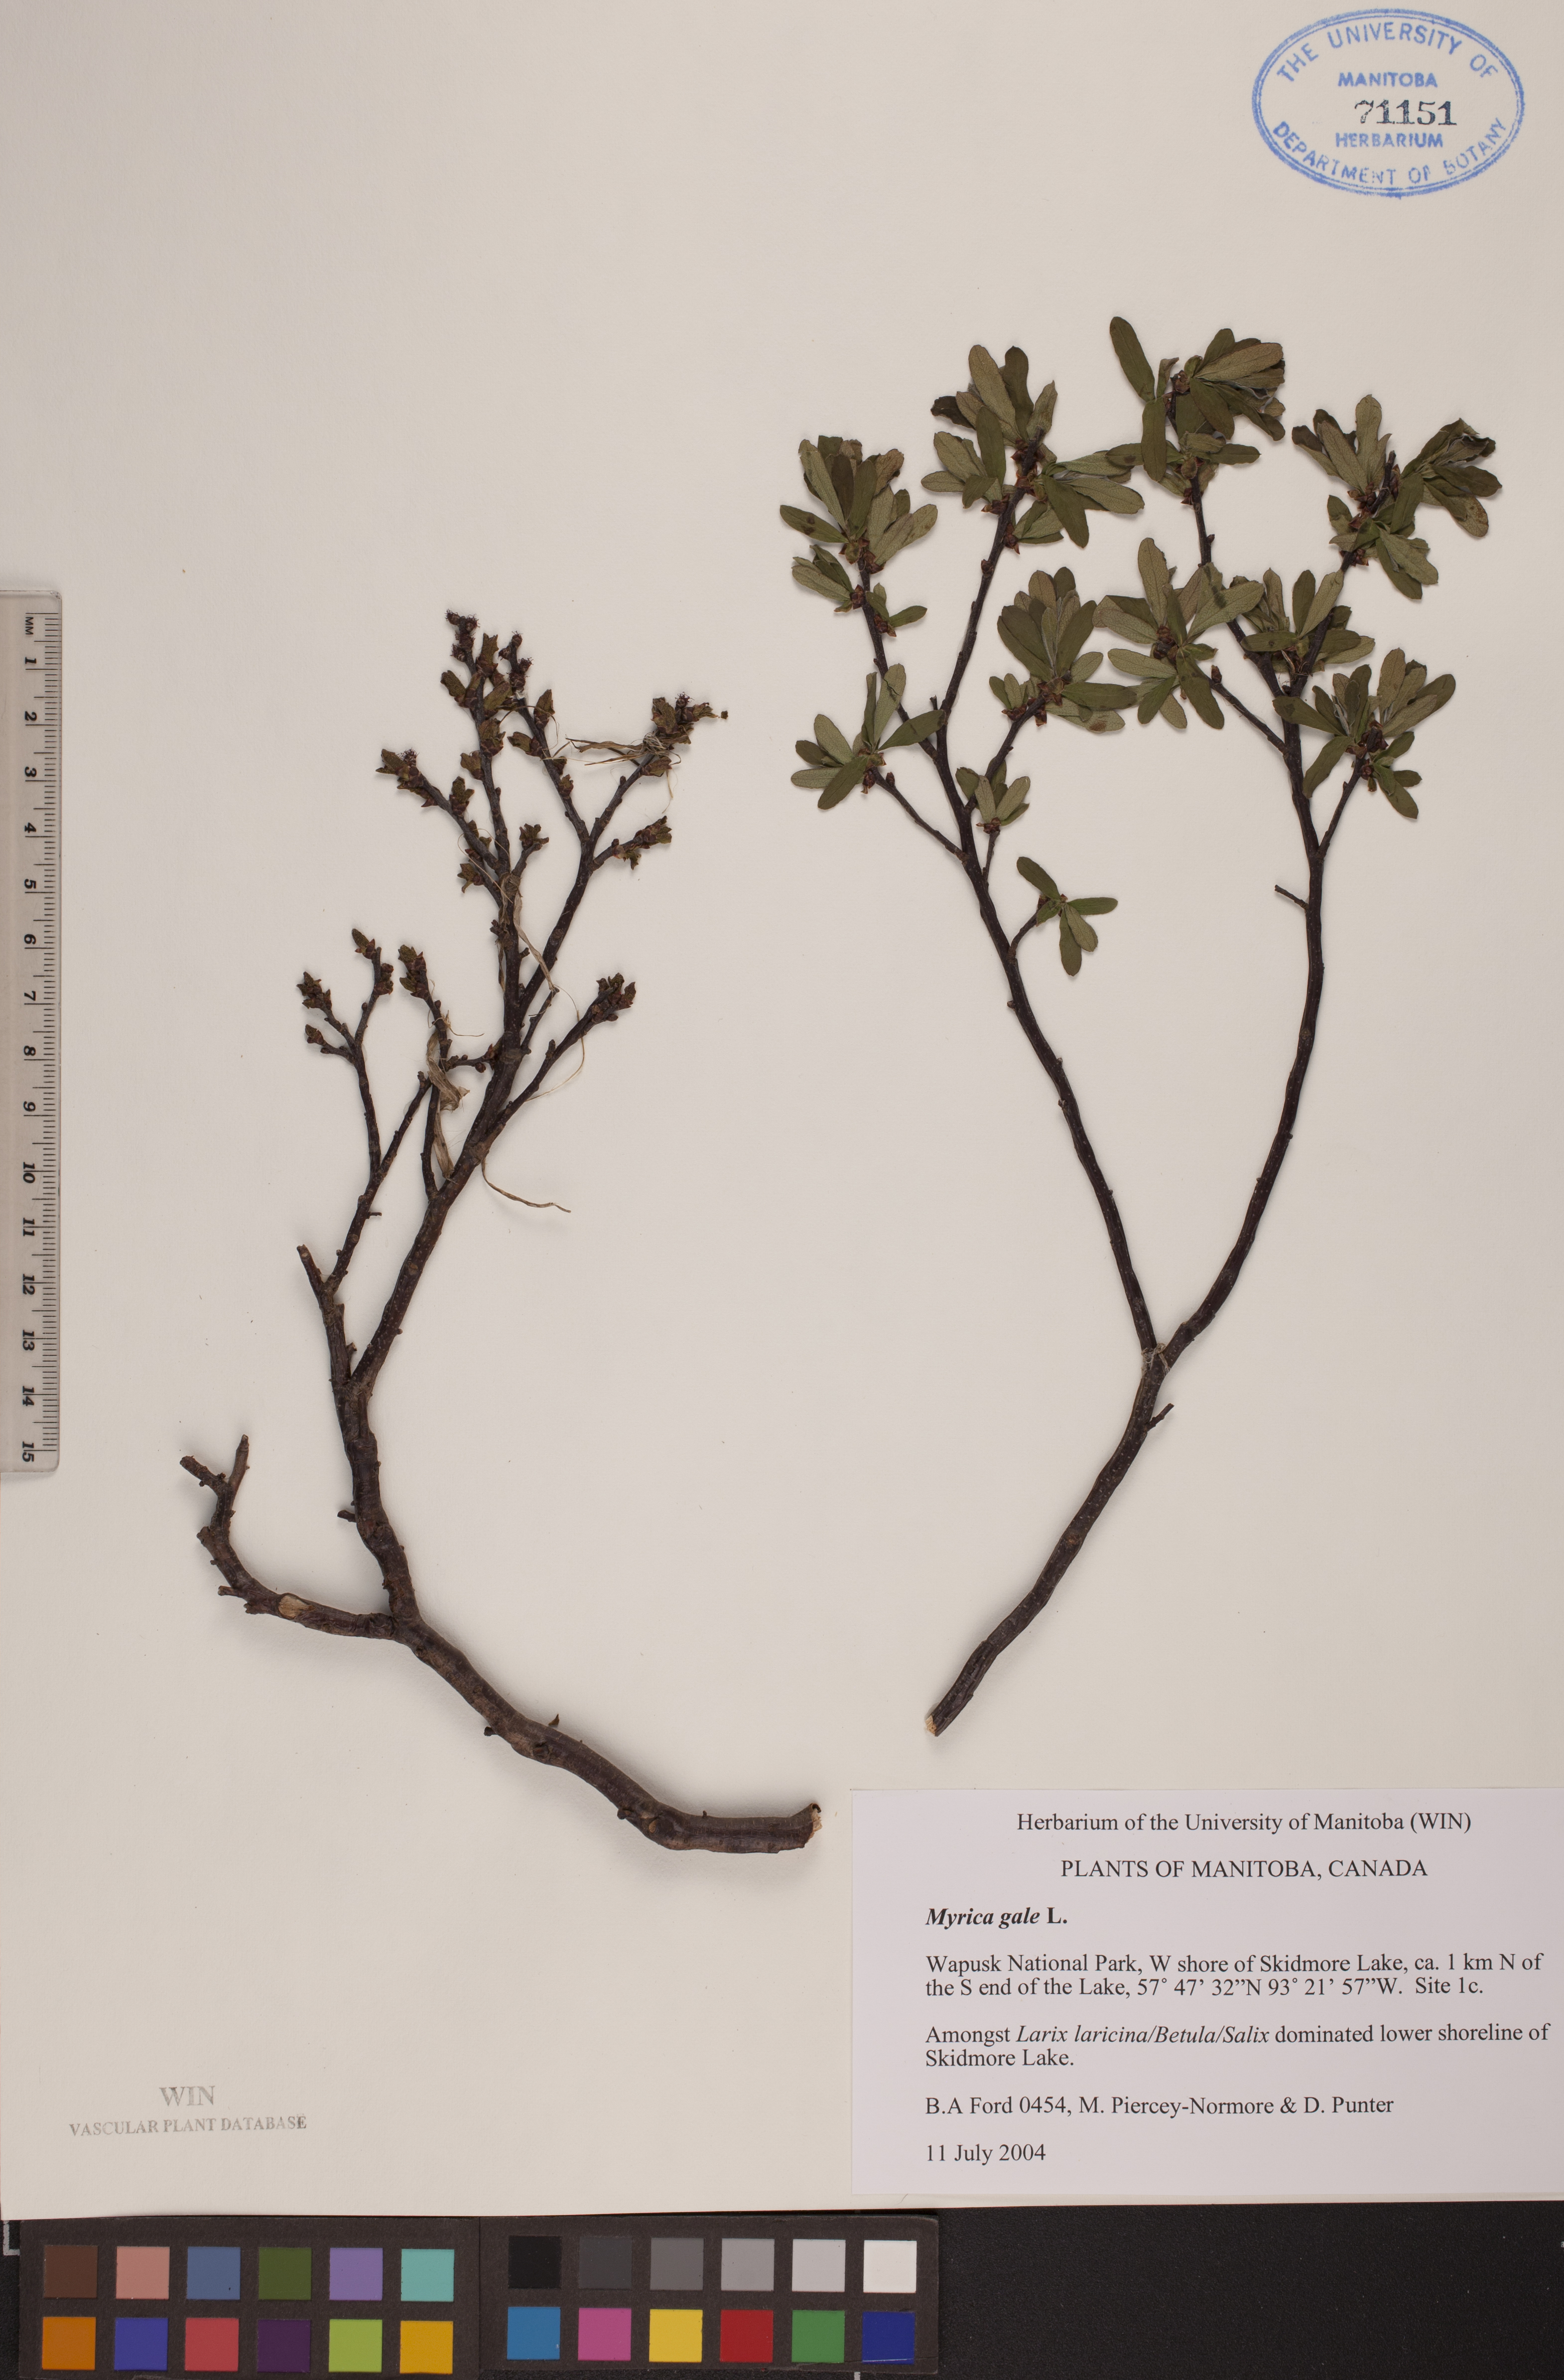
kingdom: Plantae
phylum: Tracheophyta
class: Magnoliopsida
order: Fagales
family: Myricaceae
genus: Myrica
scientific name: Myrica gale
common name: Sweet gale
